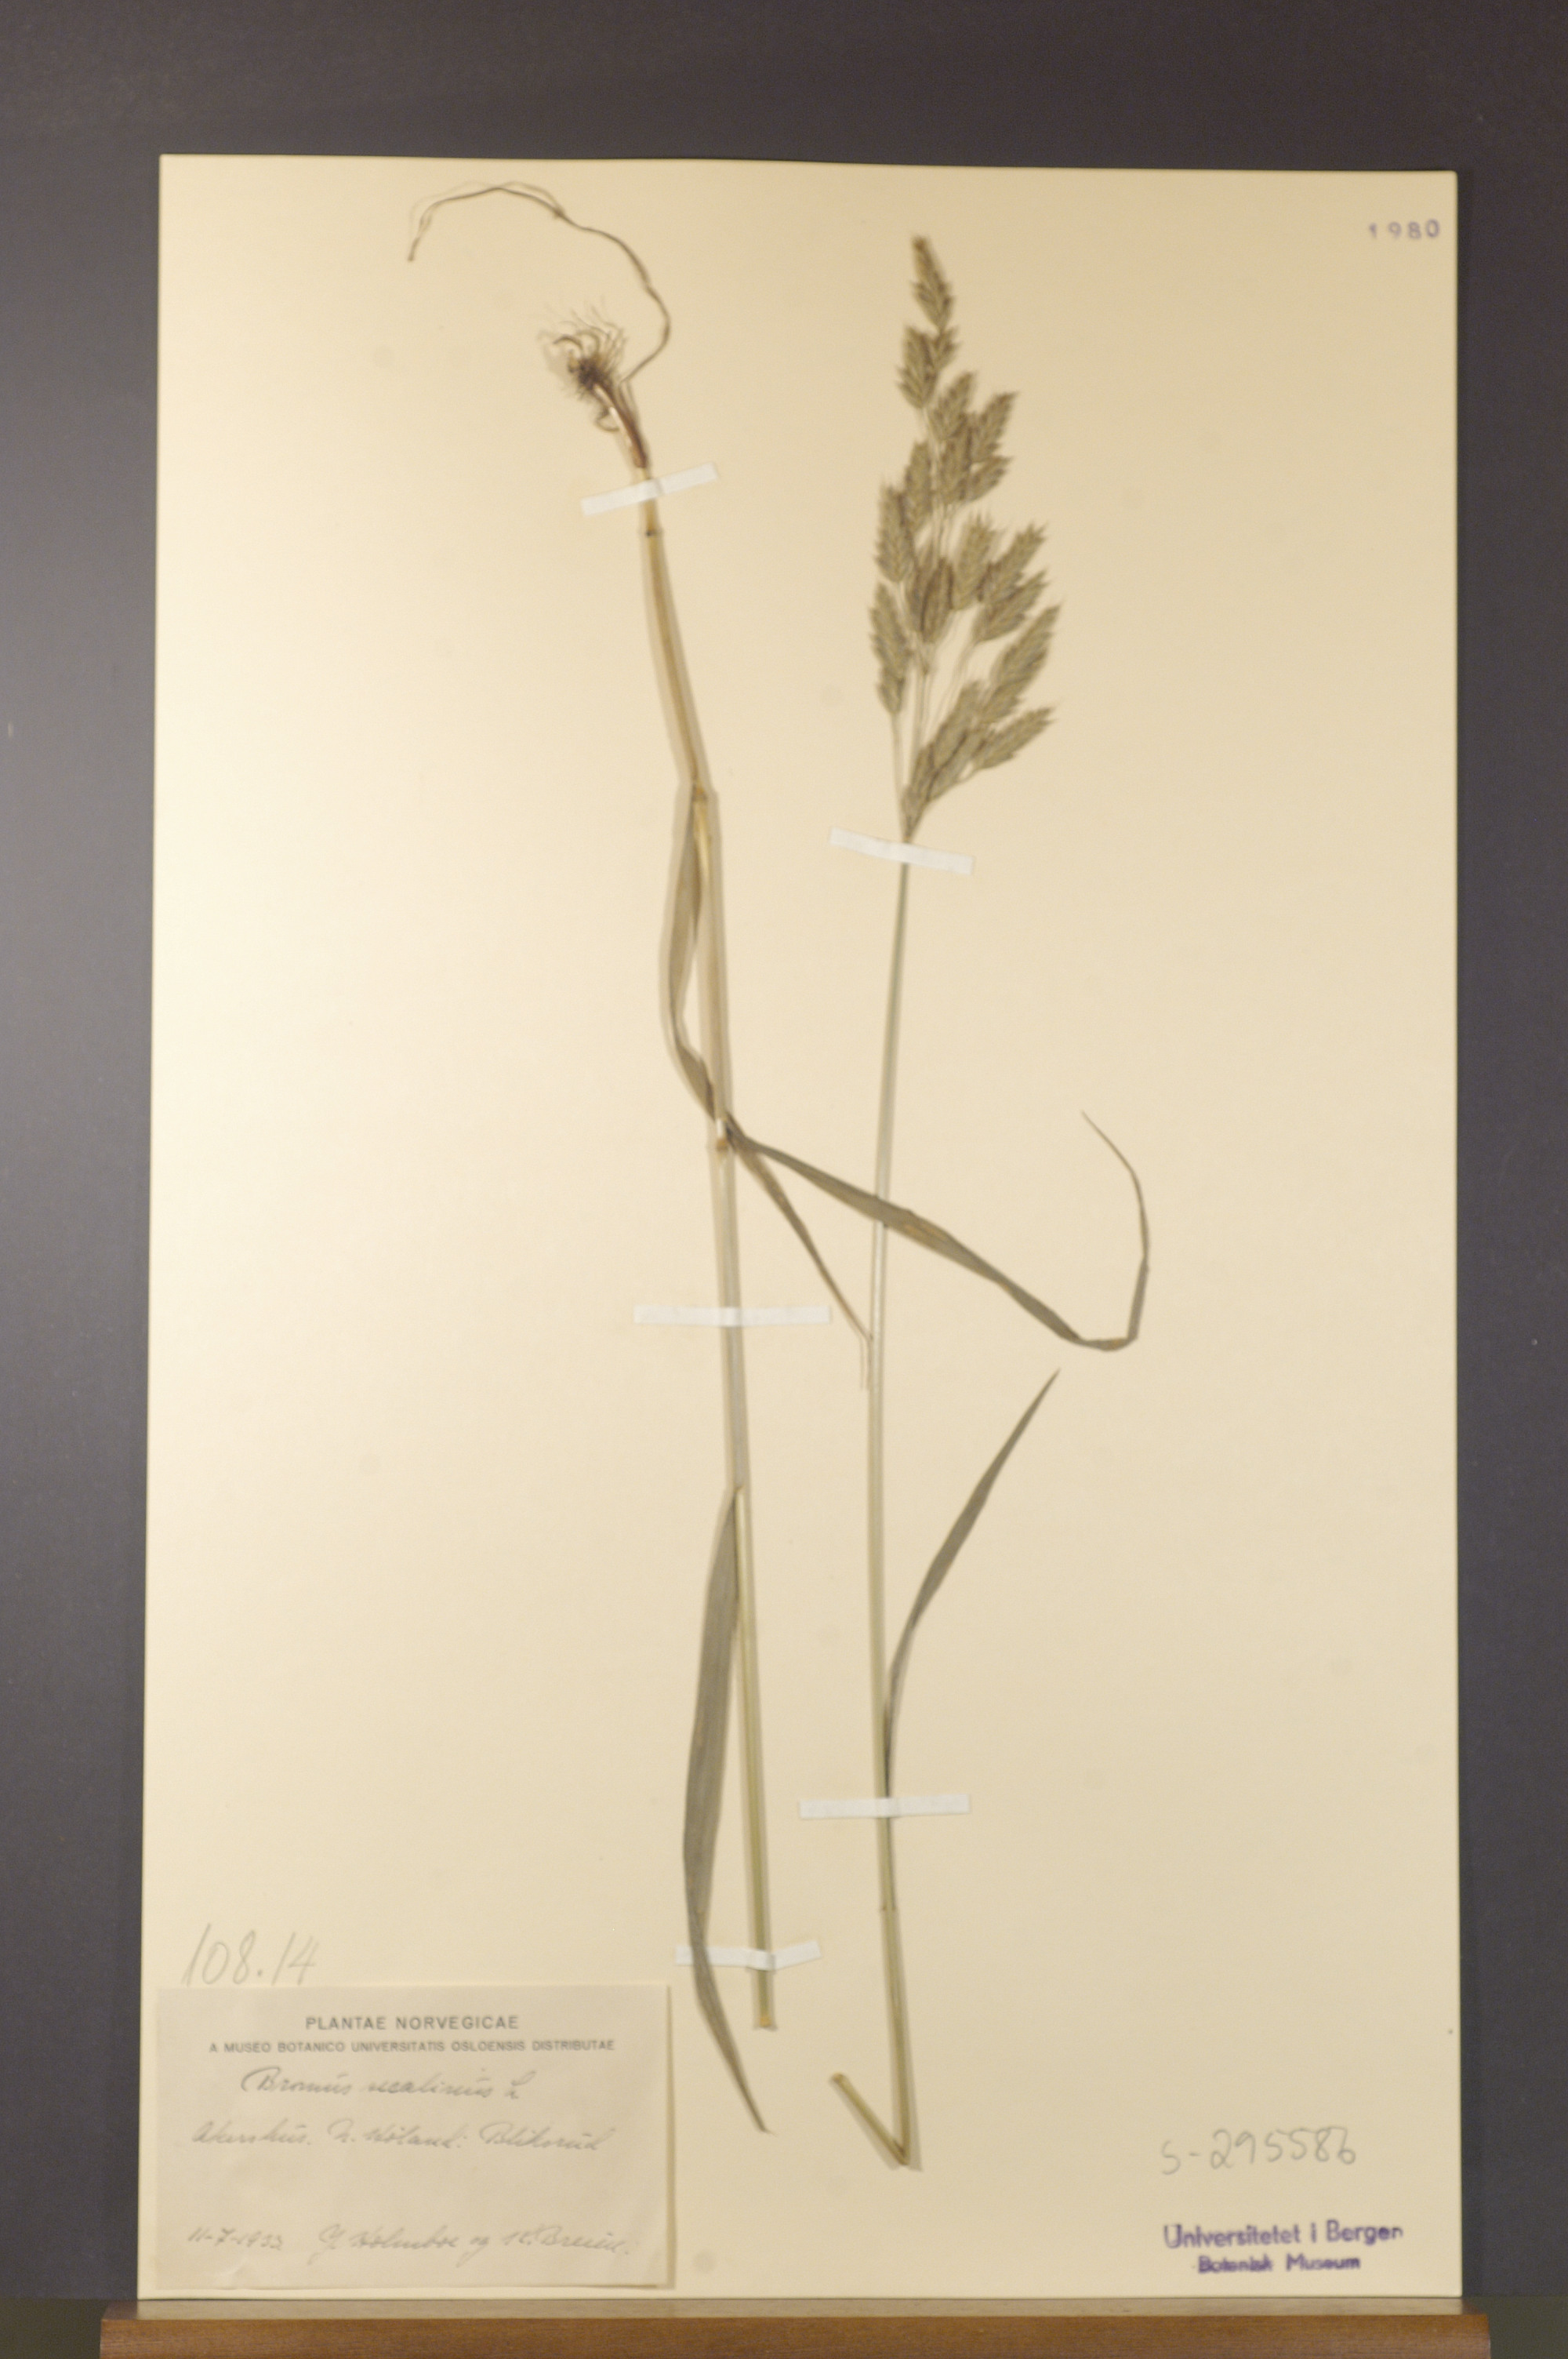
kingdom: Plantae
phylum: Tracheophyta
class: Liliopsida
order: Poales
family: Poaceae
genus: Bromus
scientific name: Bromus secalinus
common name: Rye brome
